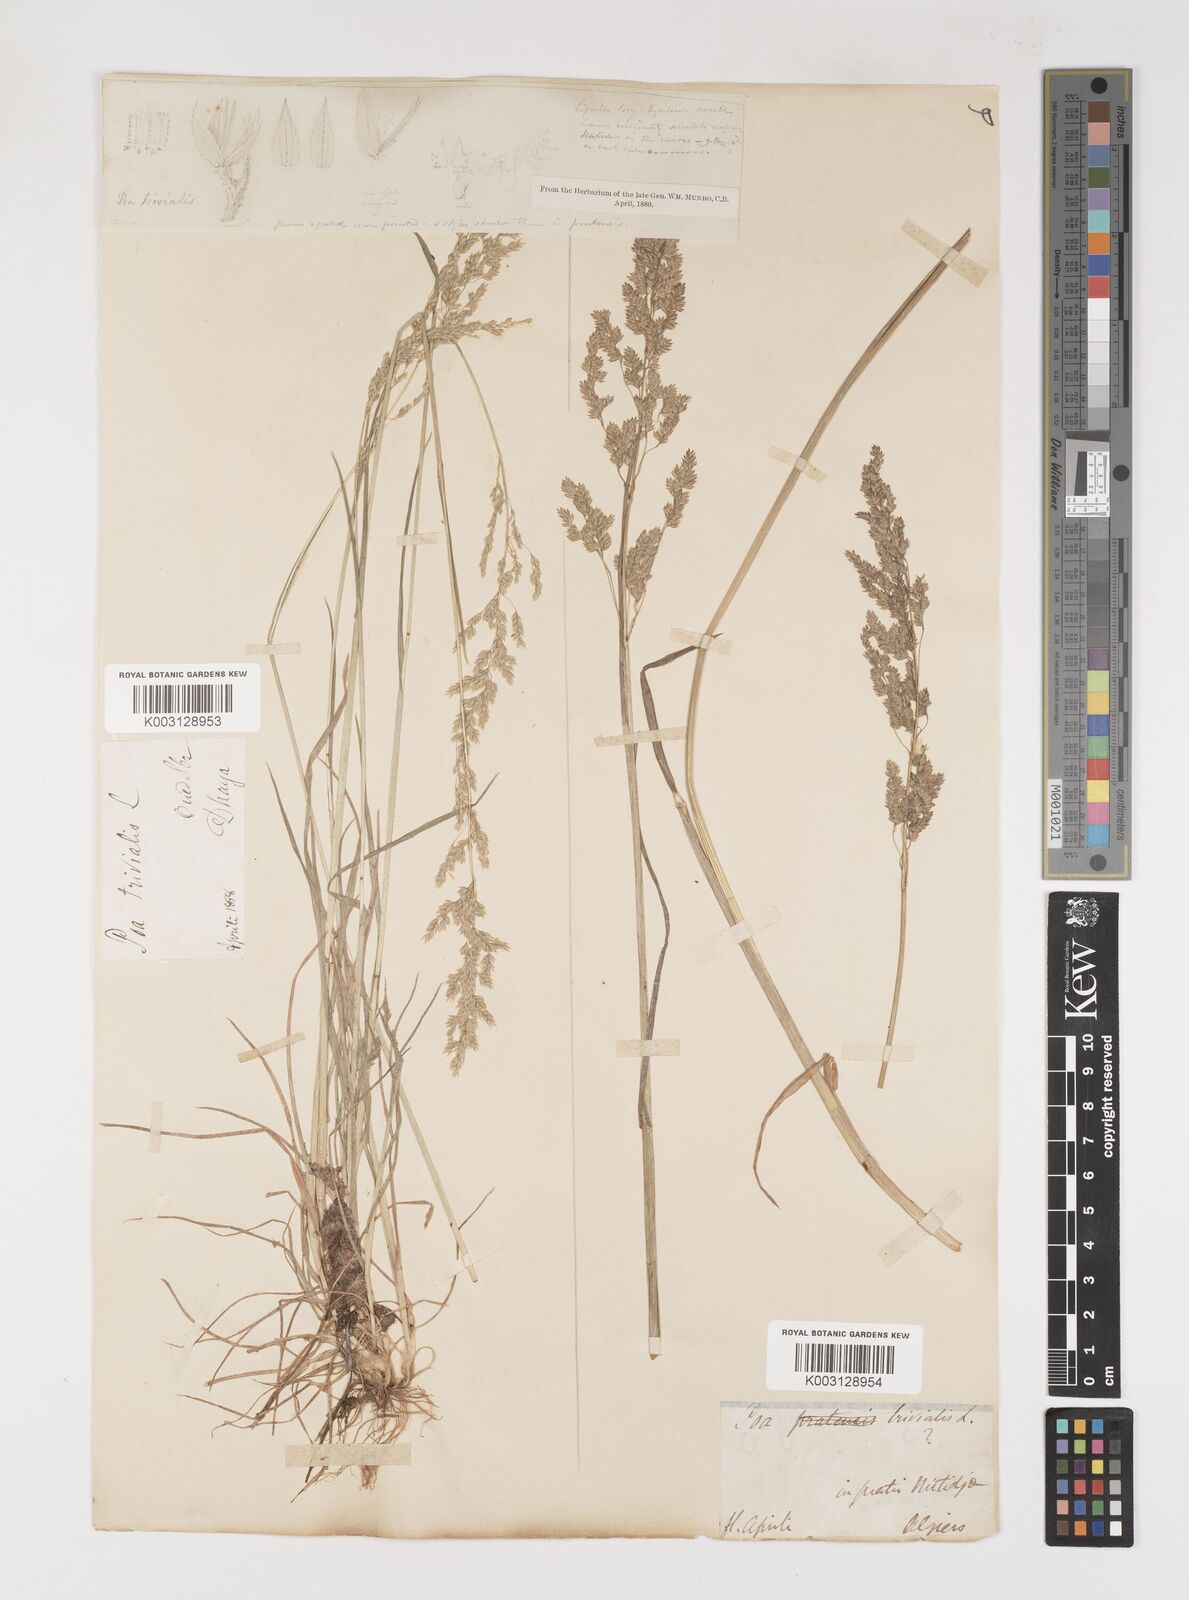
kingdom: Plantae
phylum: Tracheophyta
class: Liliopsida
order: Poales
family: Poaceae
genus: Poa
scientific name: Poa trivialis
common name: Rough bluegrass
